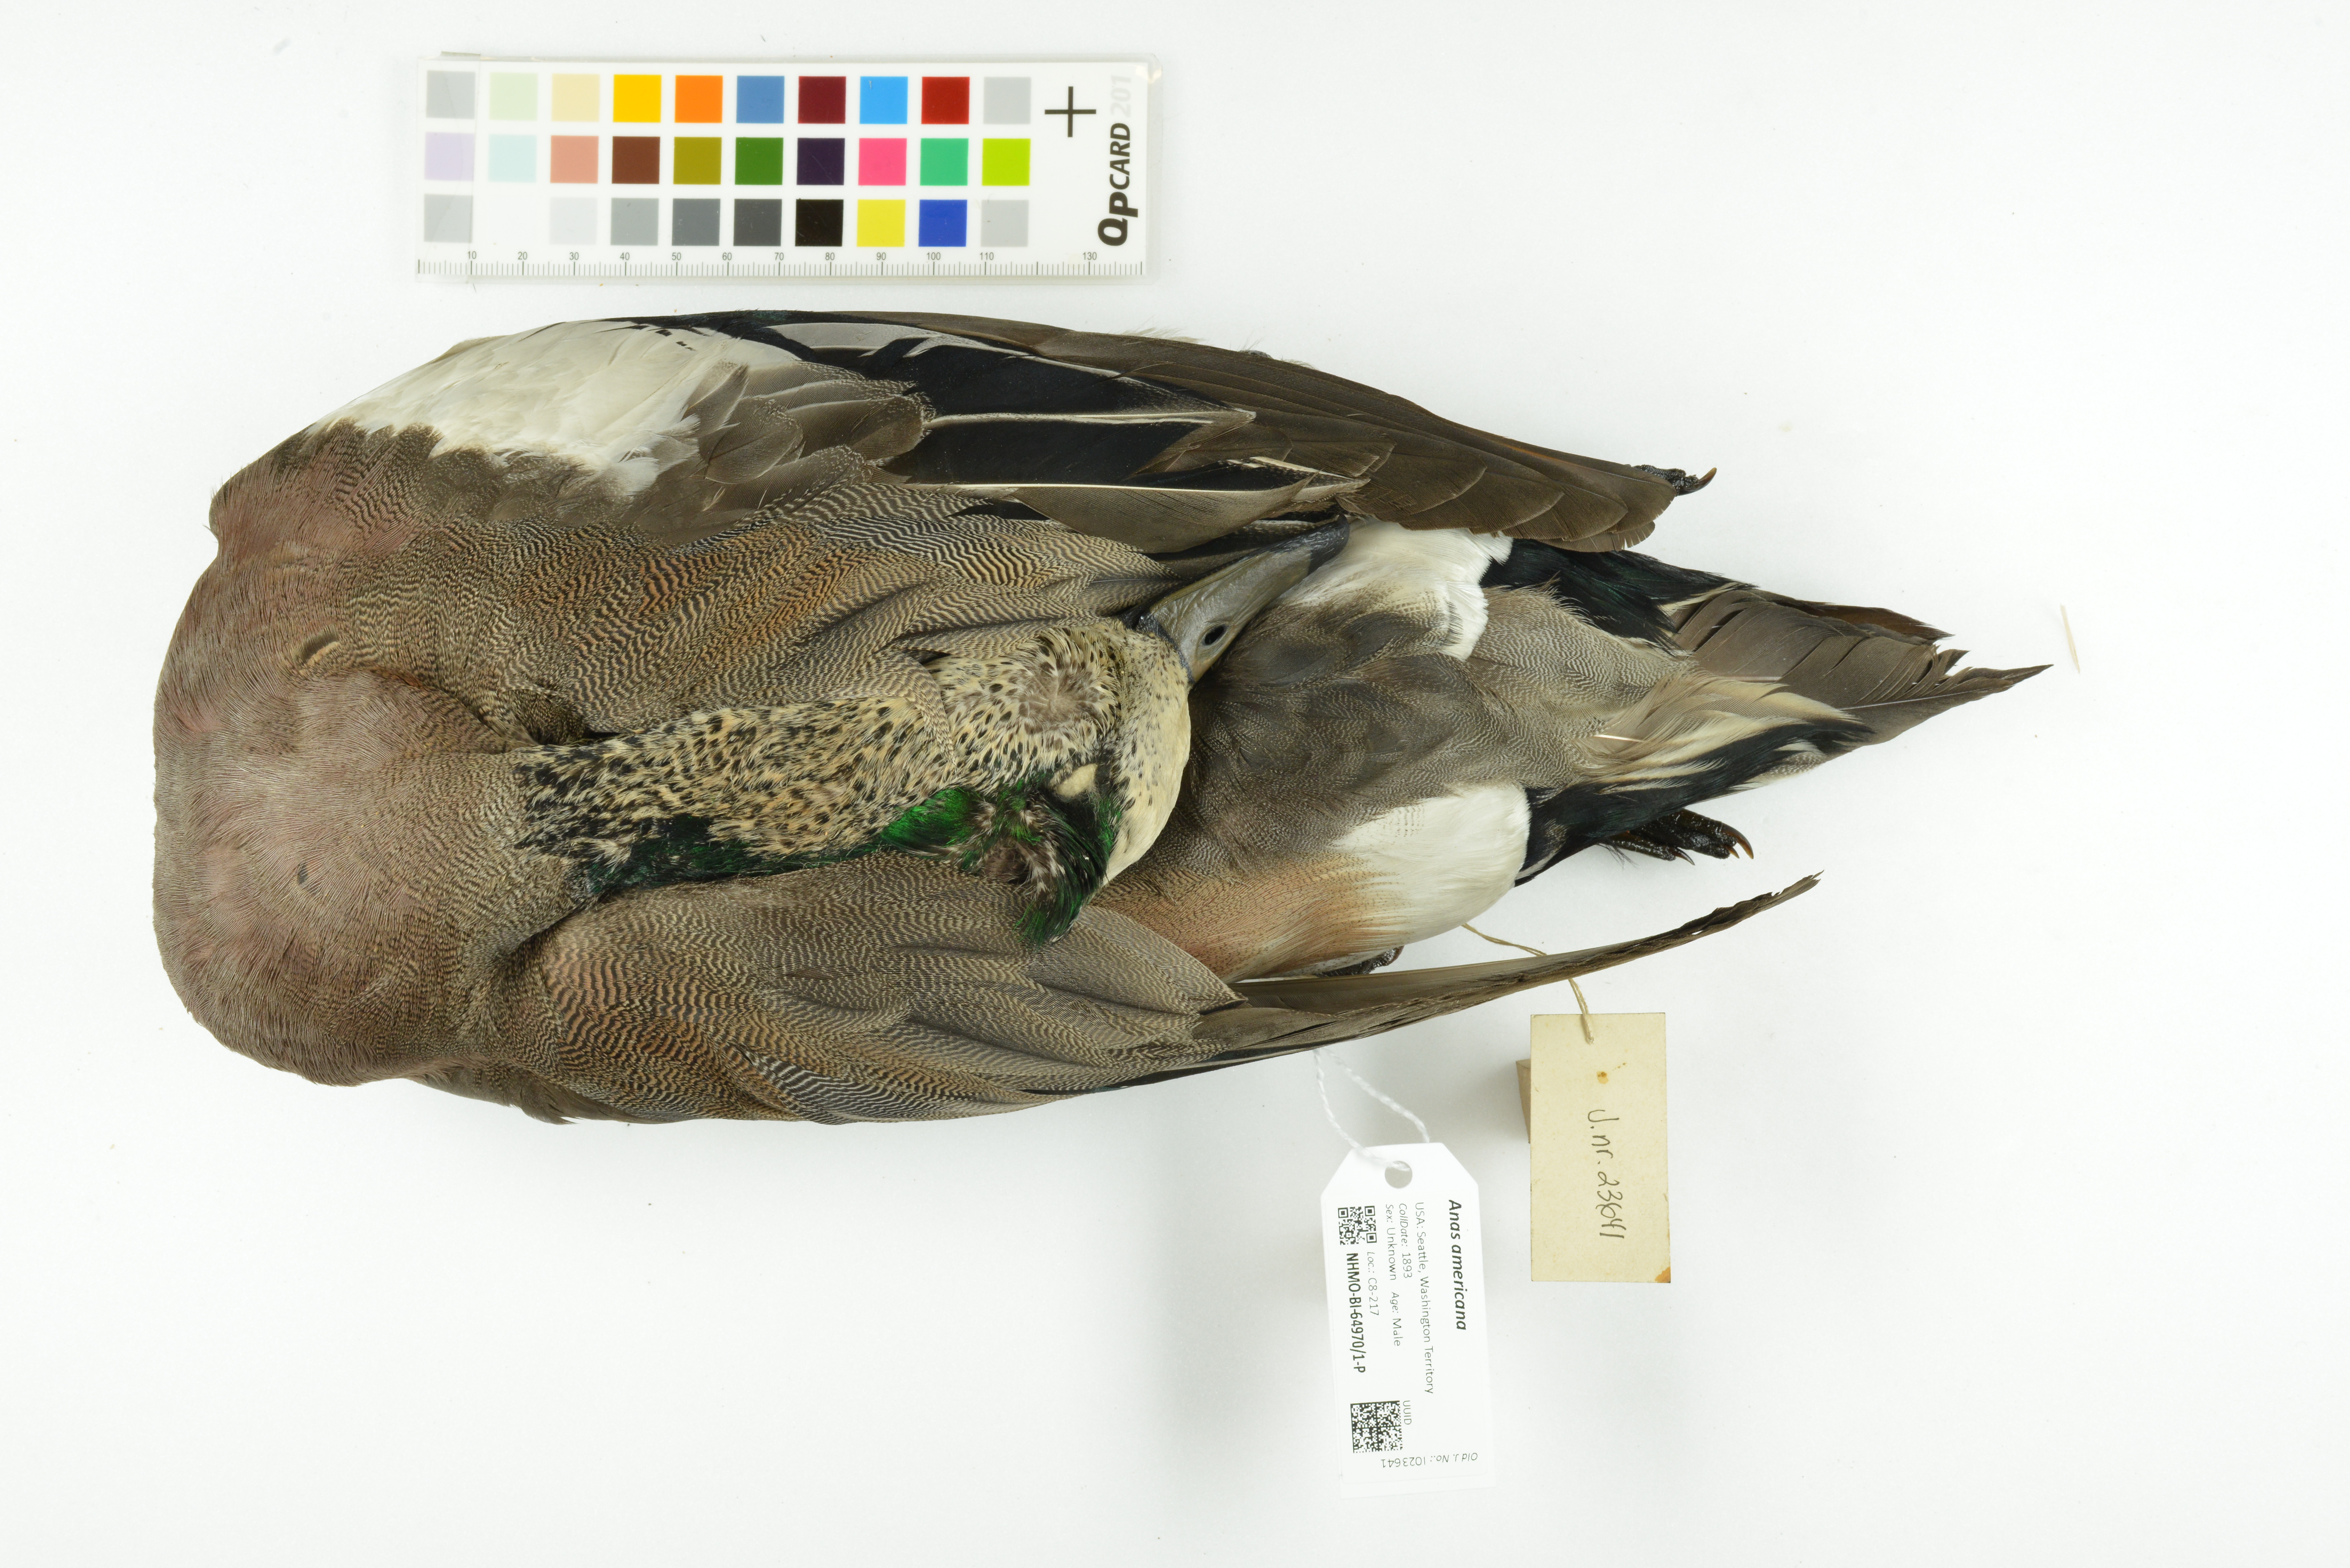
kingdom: Animalia
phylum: Chordata
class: Aves
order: Anseriformes
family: Anatidae
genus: Mareca
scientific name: Mareca americana
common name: American wigeon
